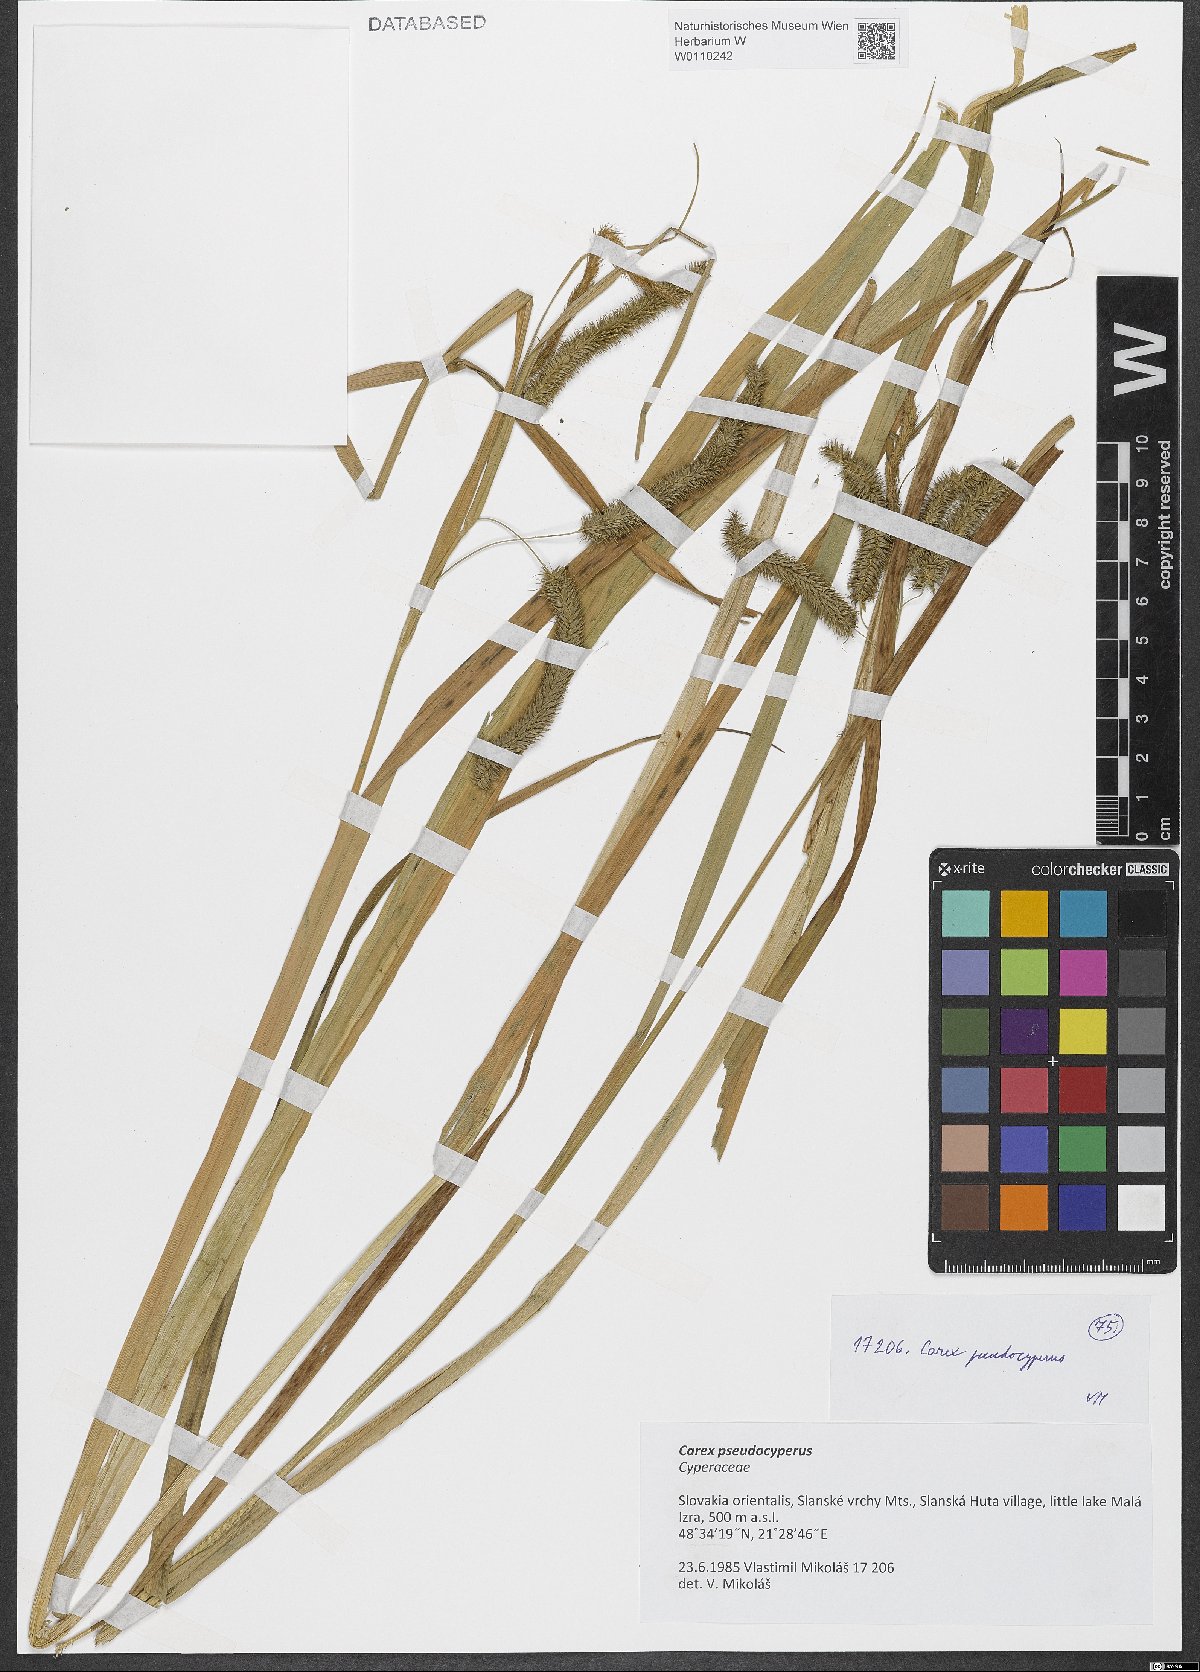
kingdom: Plantae
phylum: Tracheophyta
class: Liliopsida
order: Poales
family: Cyperaceae
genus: Carex
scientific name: Carex pseudocyperus
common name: Cyperus sedge
